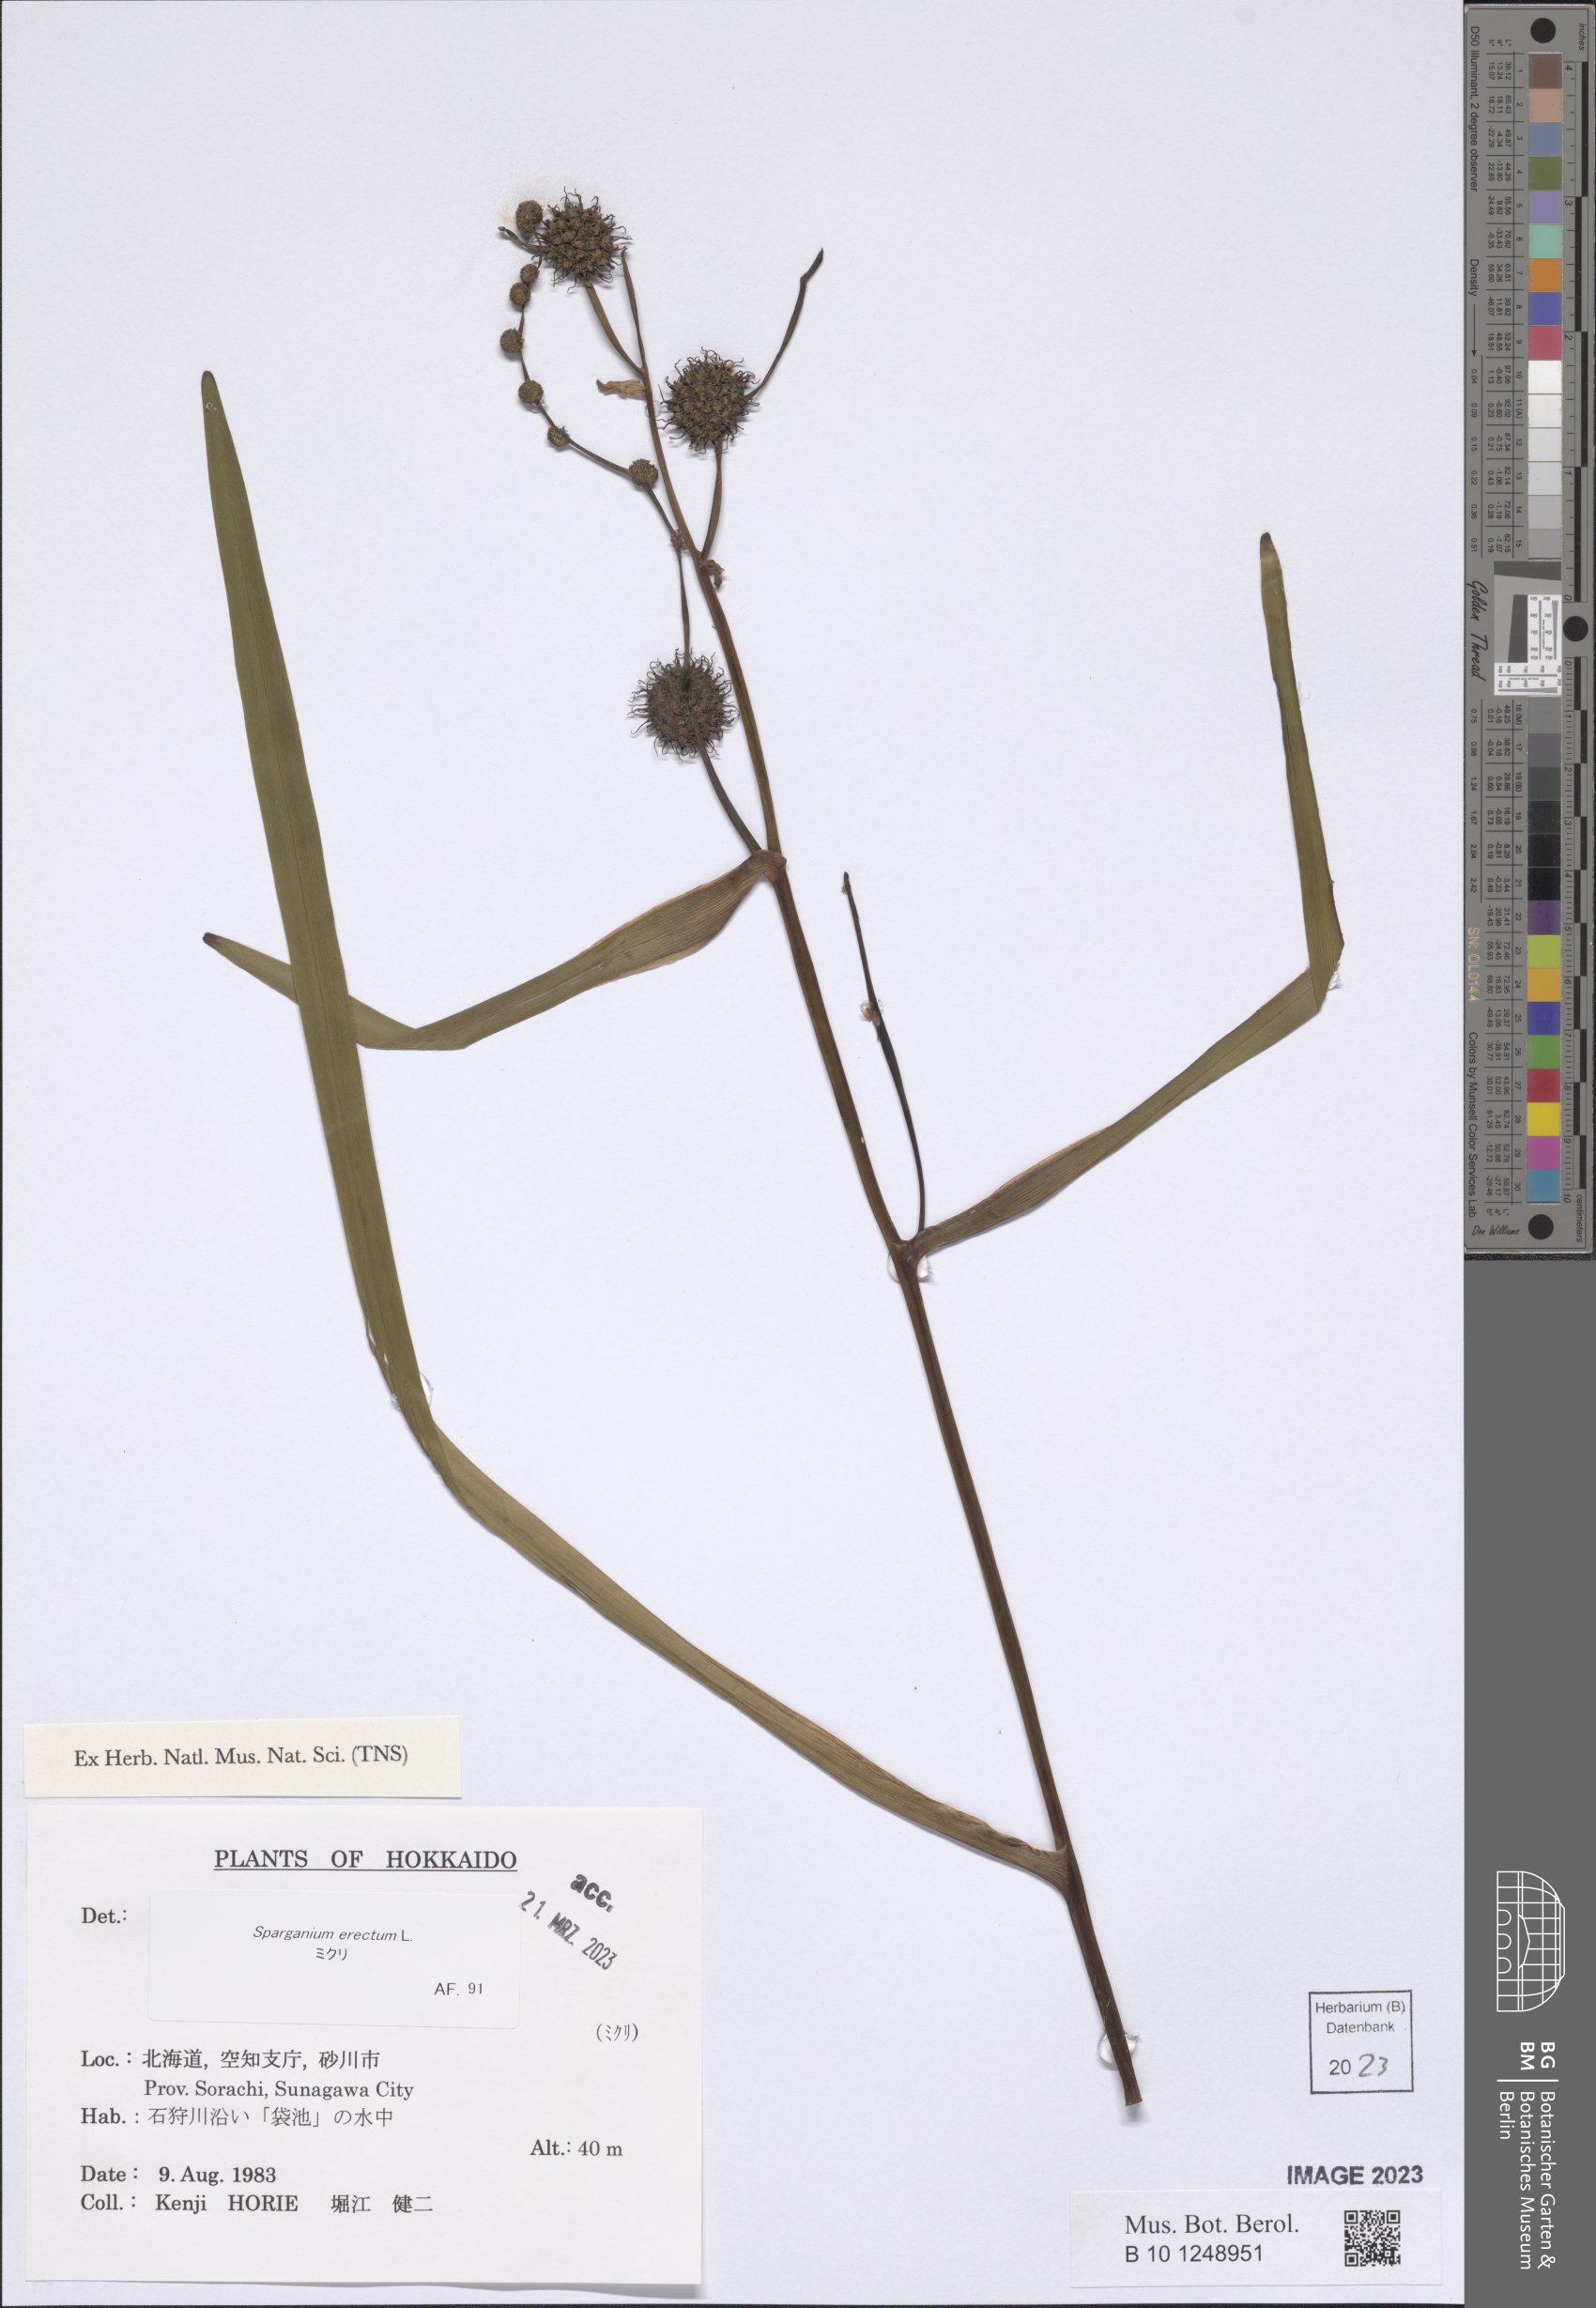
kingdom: Plantae
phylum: Tracheophyta
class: Liliopsida
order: Poales
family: Typhaceae
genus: Sparganium
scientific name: Sparganium erectum
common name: Branched bur-reed
